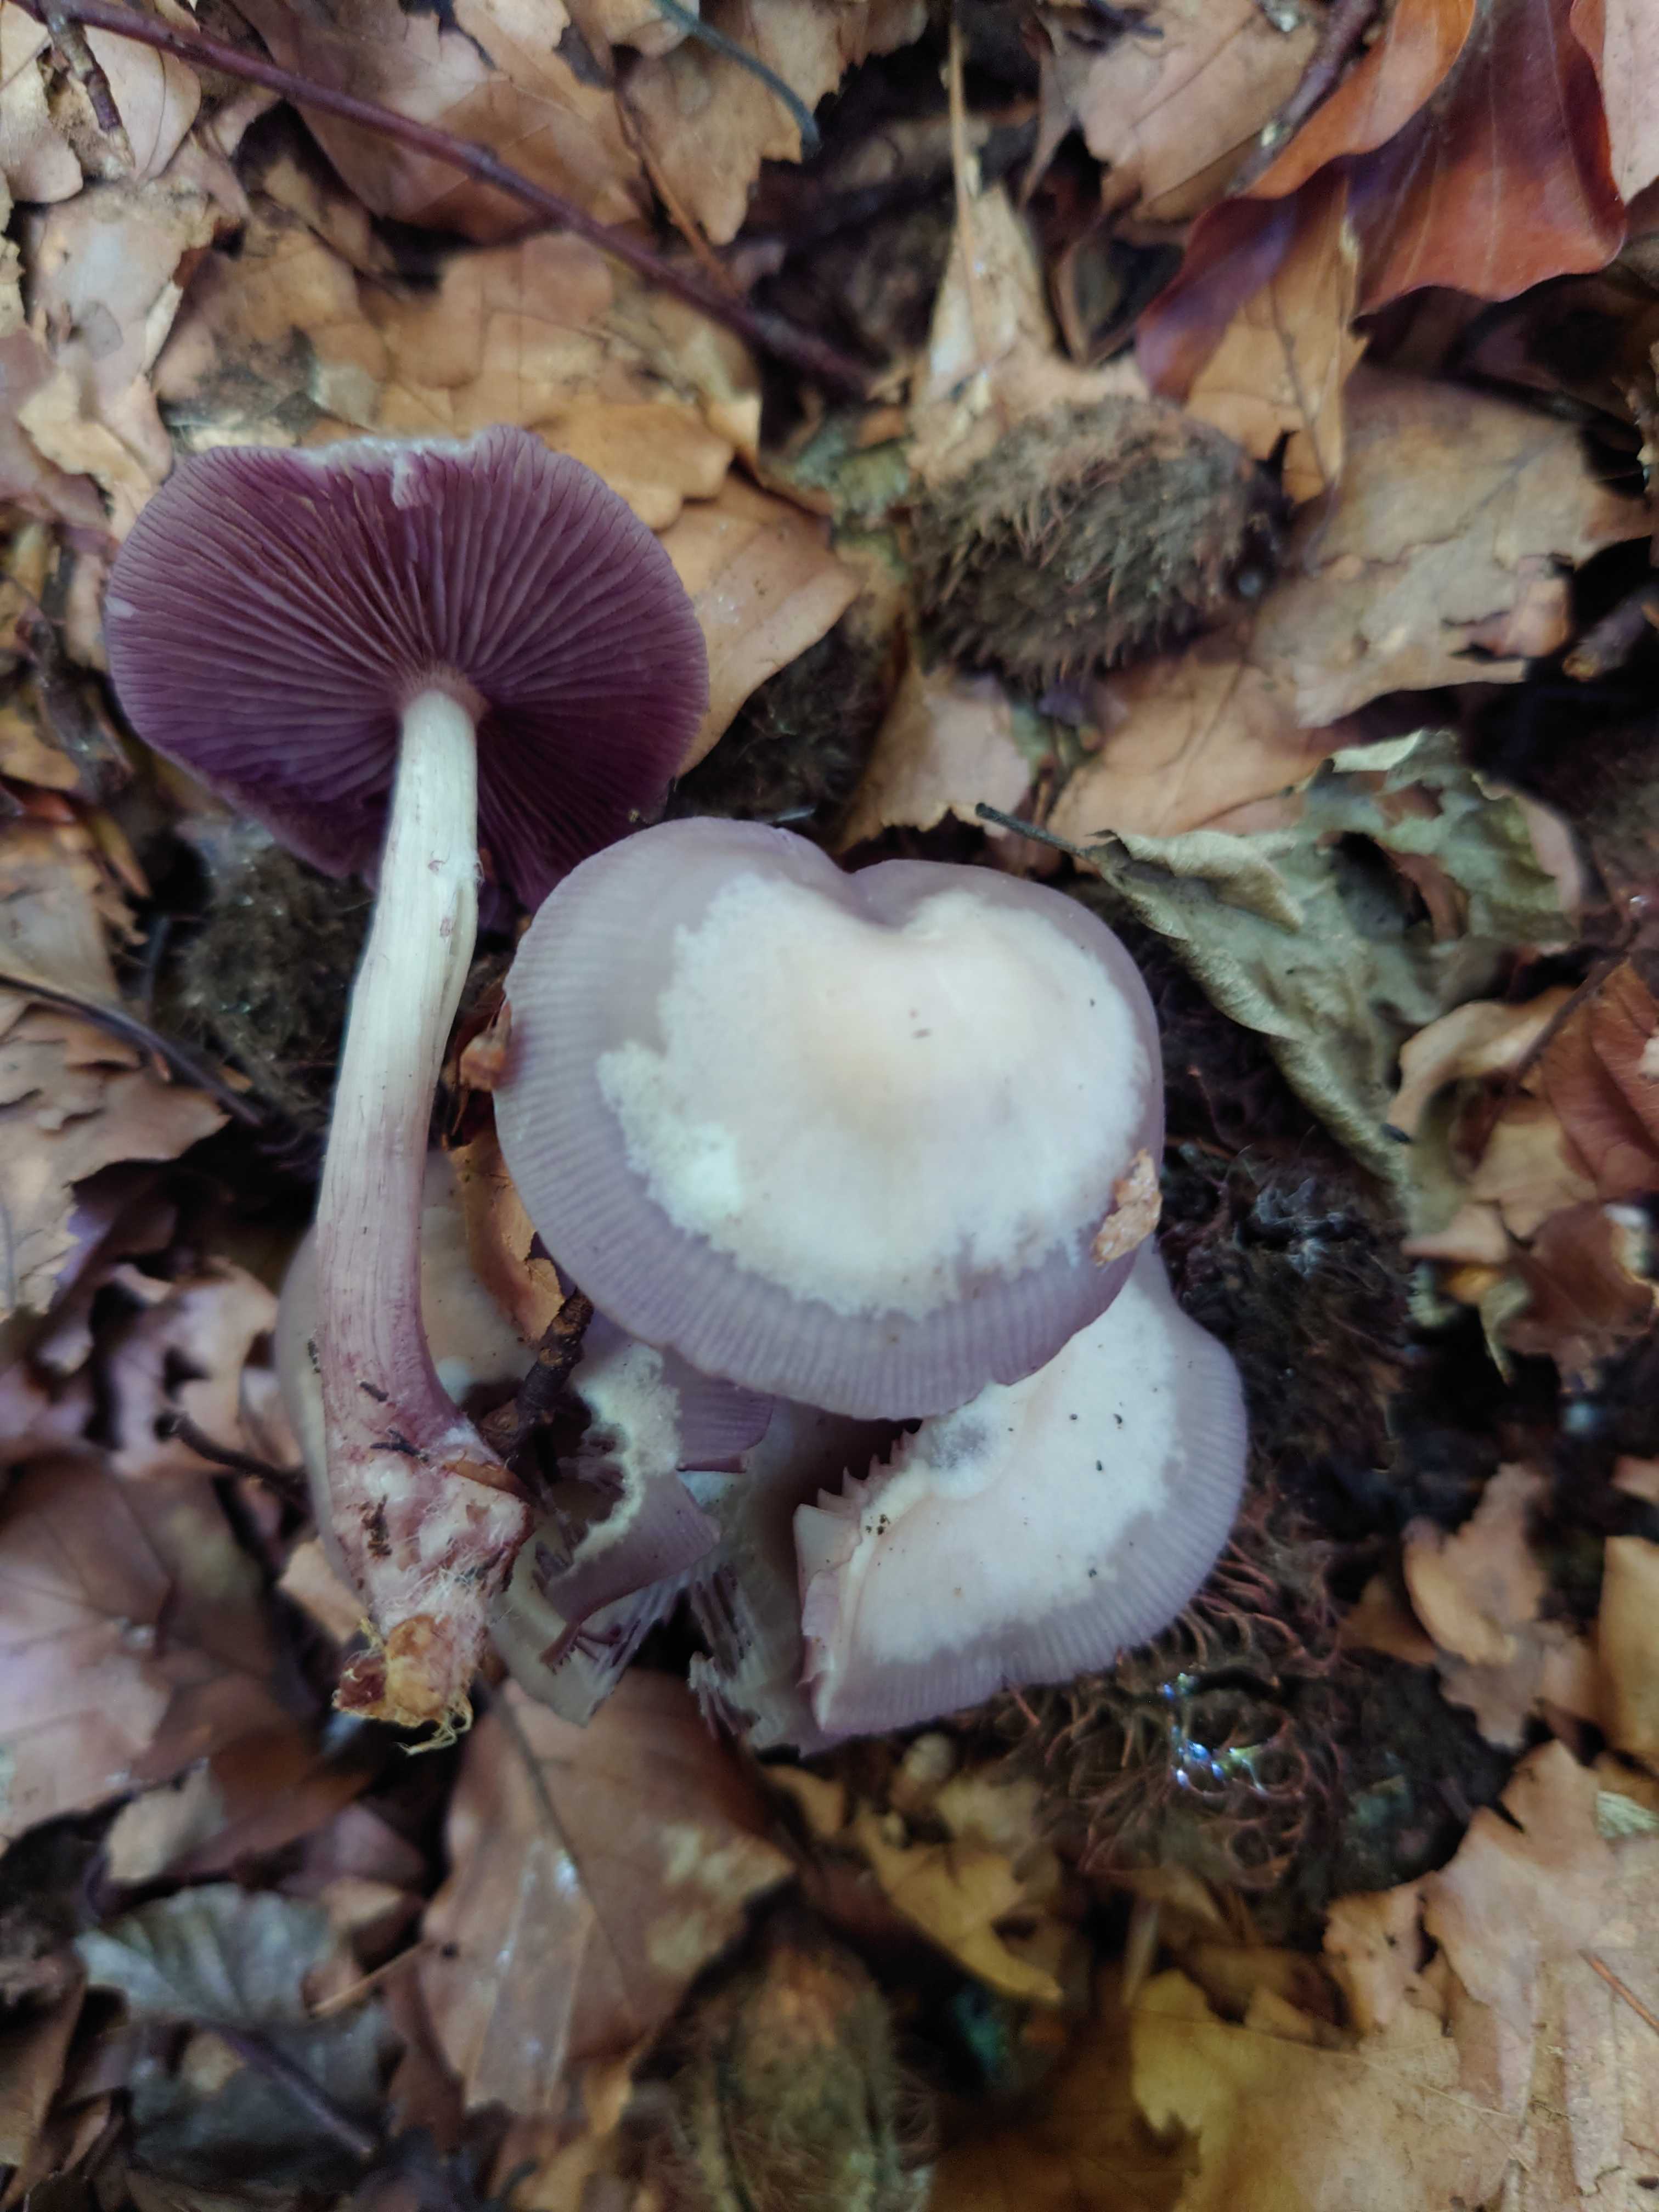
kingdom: Fungi
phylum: Basidiomycota
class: Agaricomycetes
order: Agaricales
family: Mycenaceae
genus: Mycena
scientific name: Mycena pelianthina
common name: mørkbladet huesvamp
